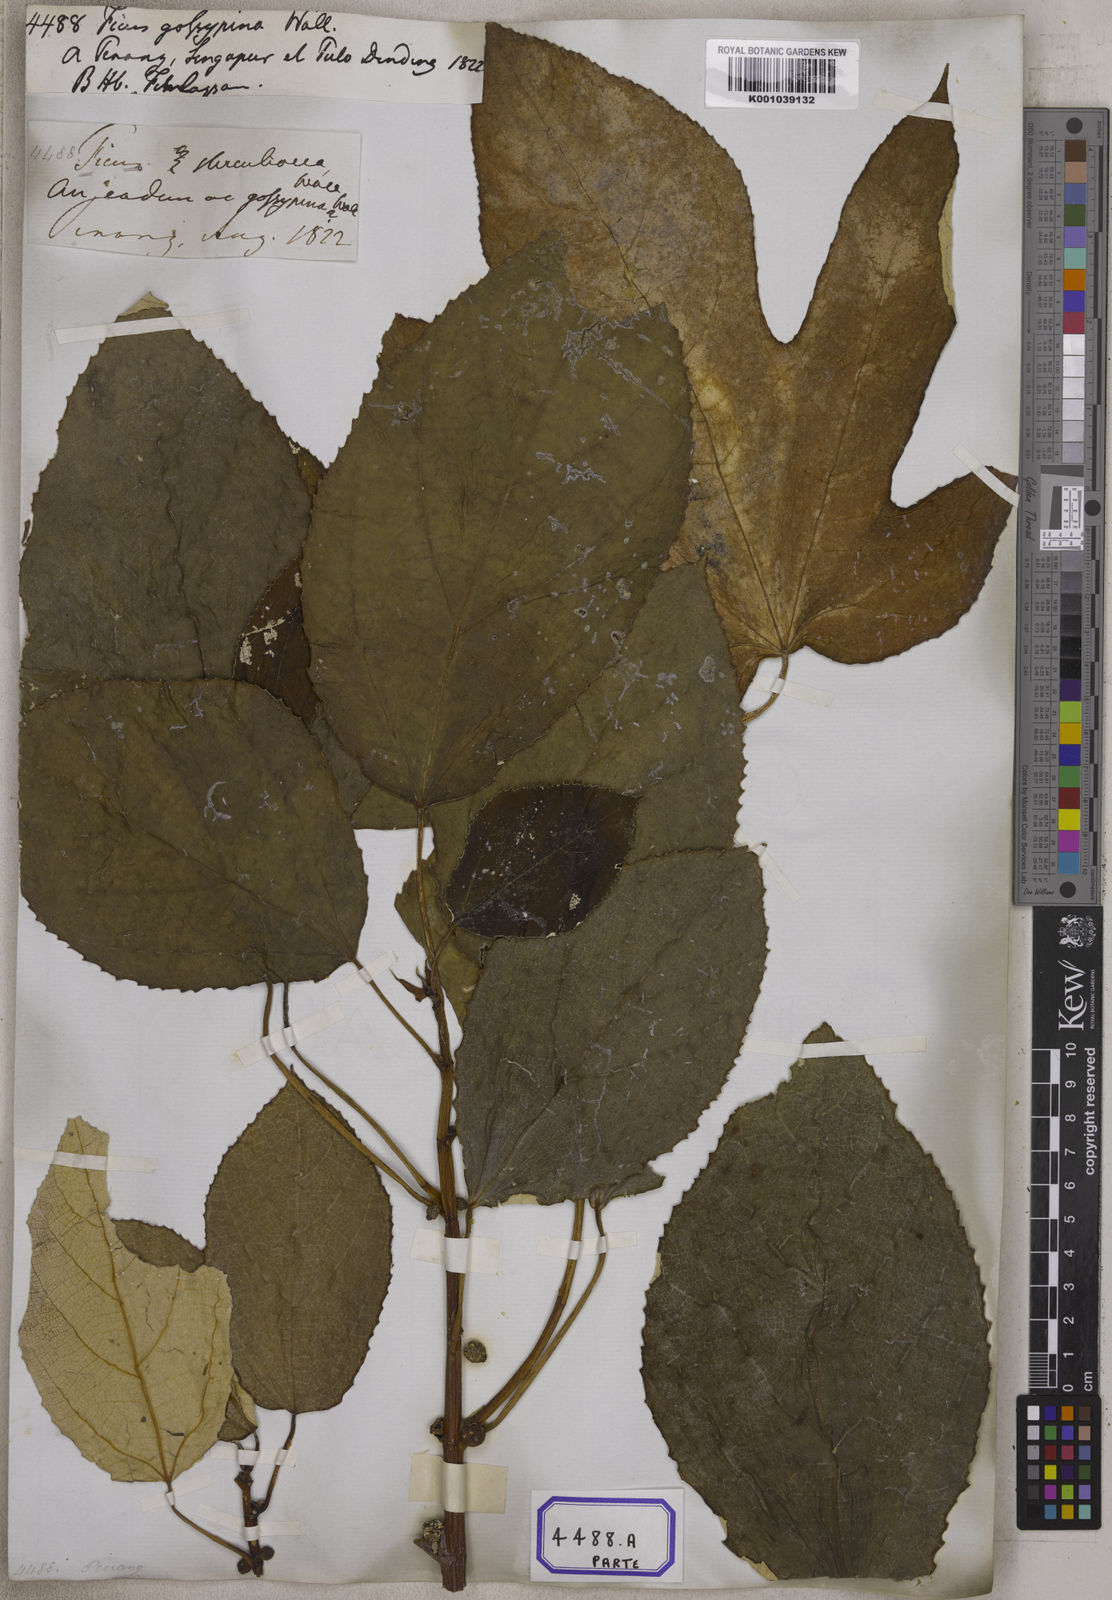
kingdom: Plantae
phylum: Tracheophyta
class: Magnoliopsida
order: Rosales
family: Moraceae
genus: Ficus
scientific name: Ficus
